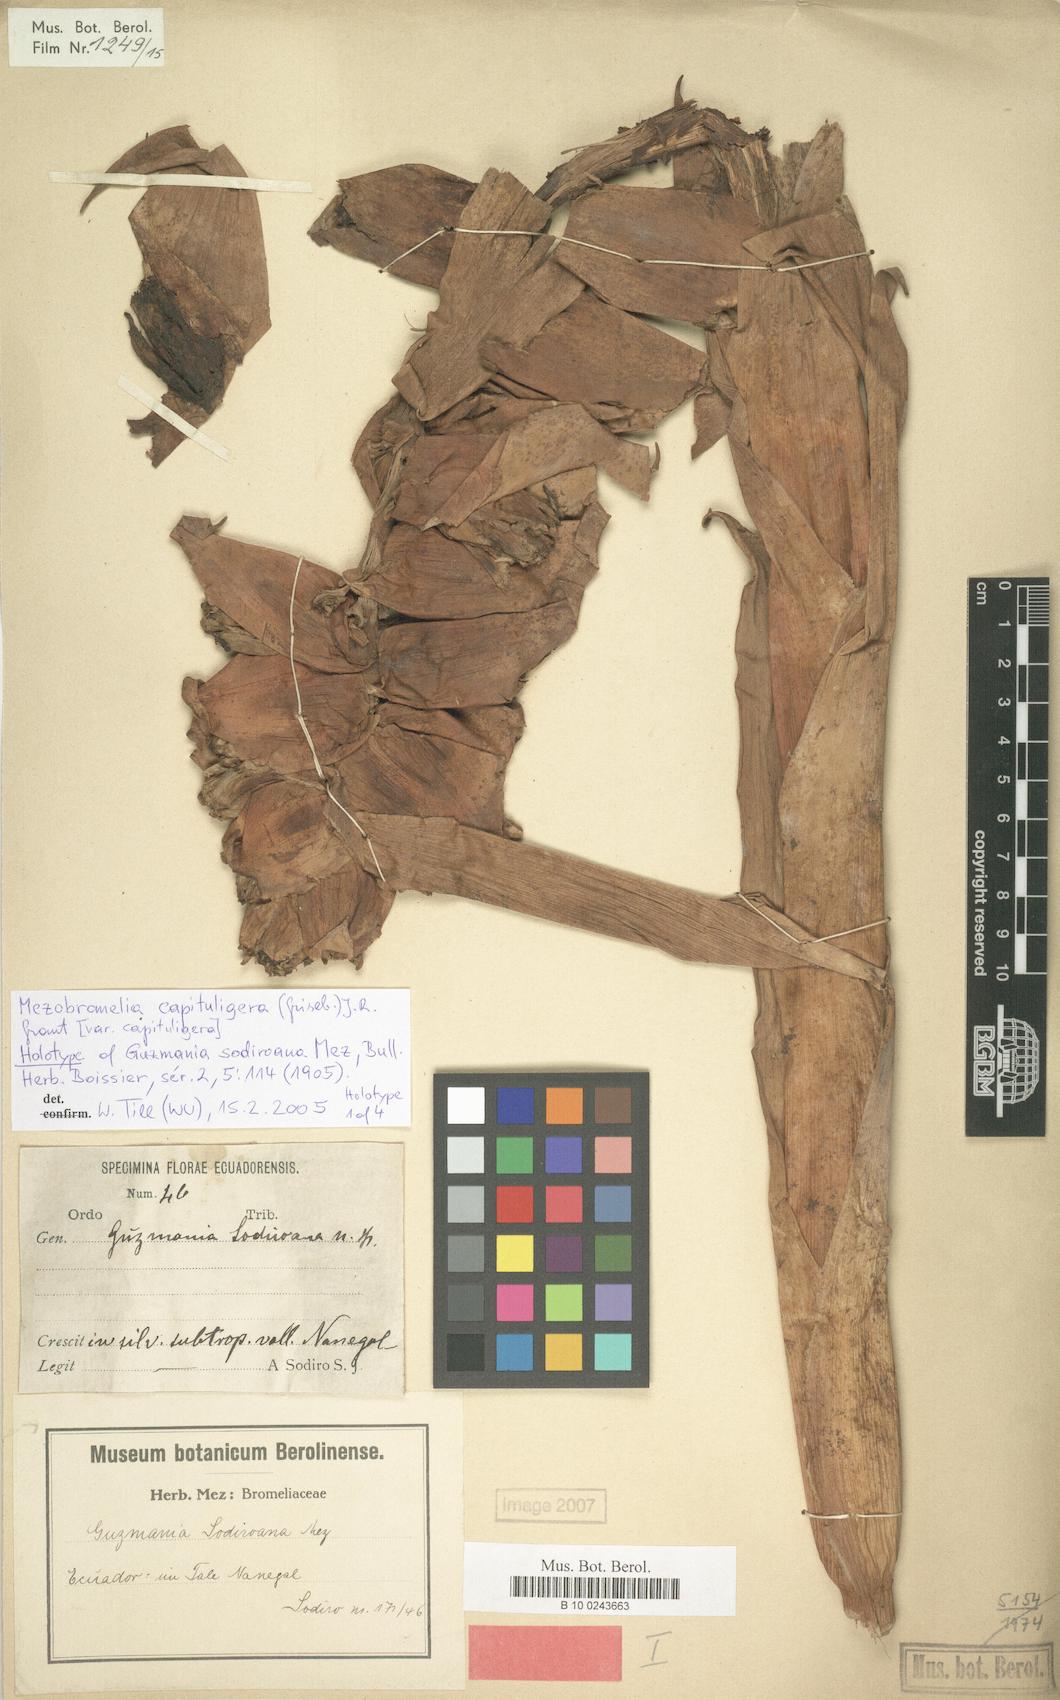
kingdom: Plantae
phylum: Tracheophyta
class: Liliopsida
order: Poales
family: Bromeliaceae
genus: Cipuropsis
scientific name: Cipuropsis capituligera
